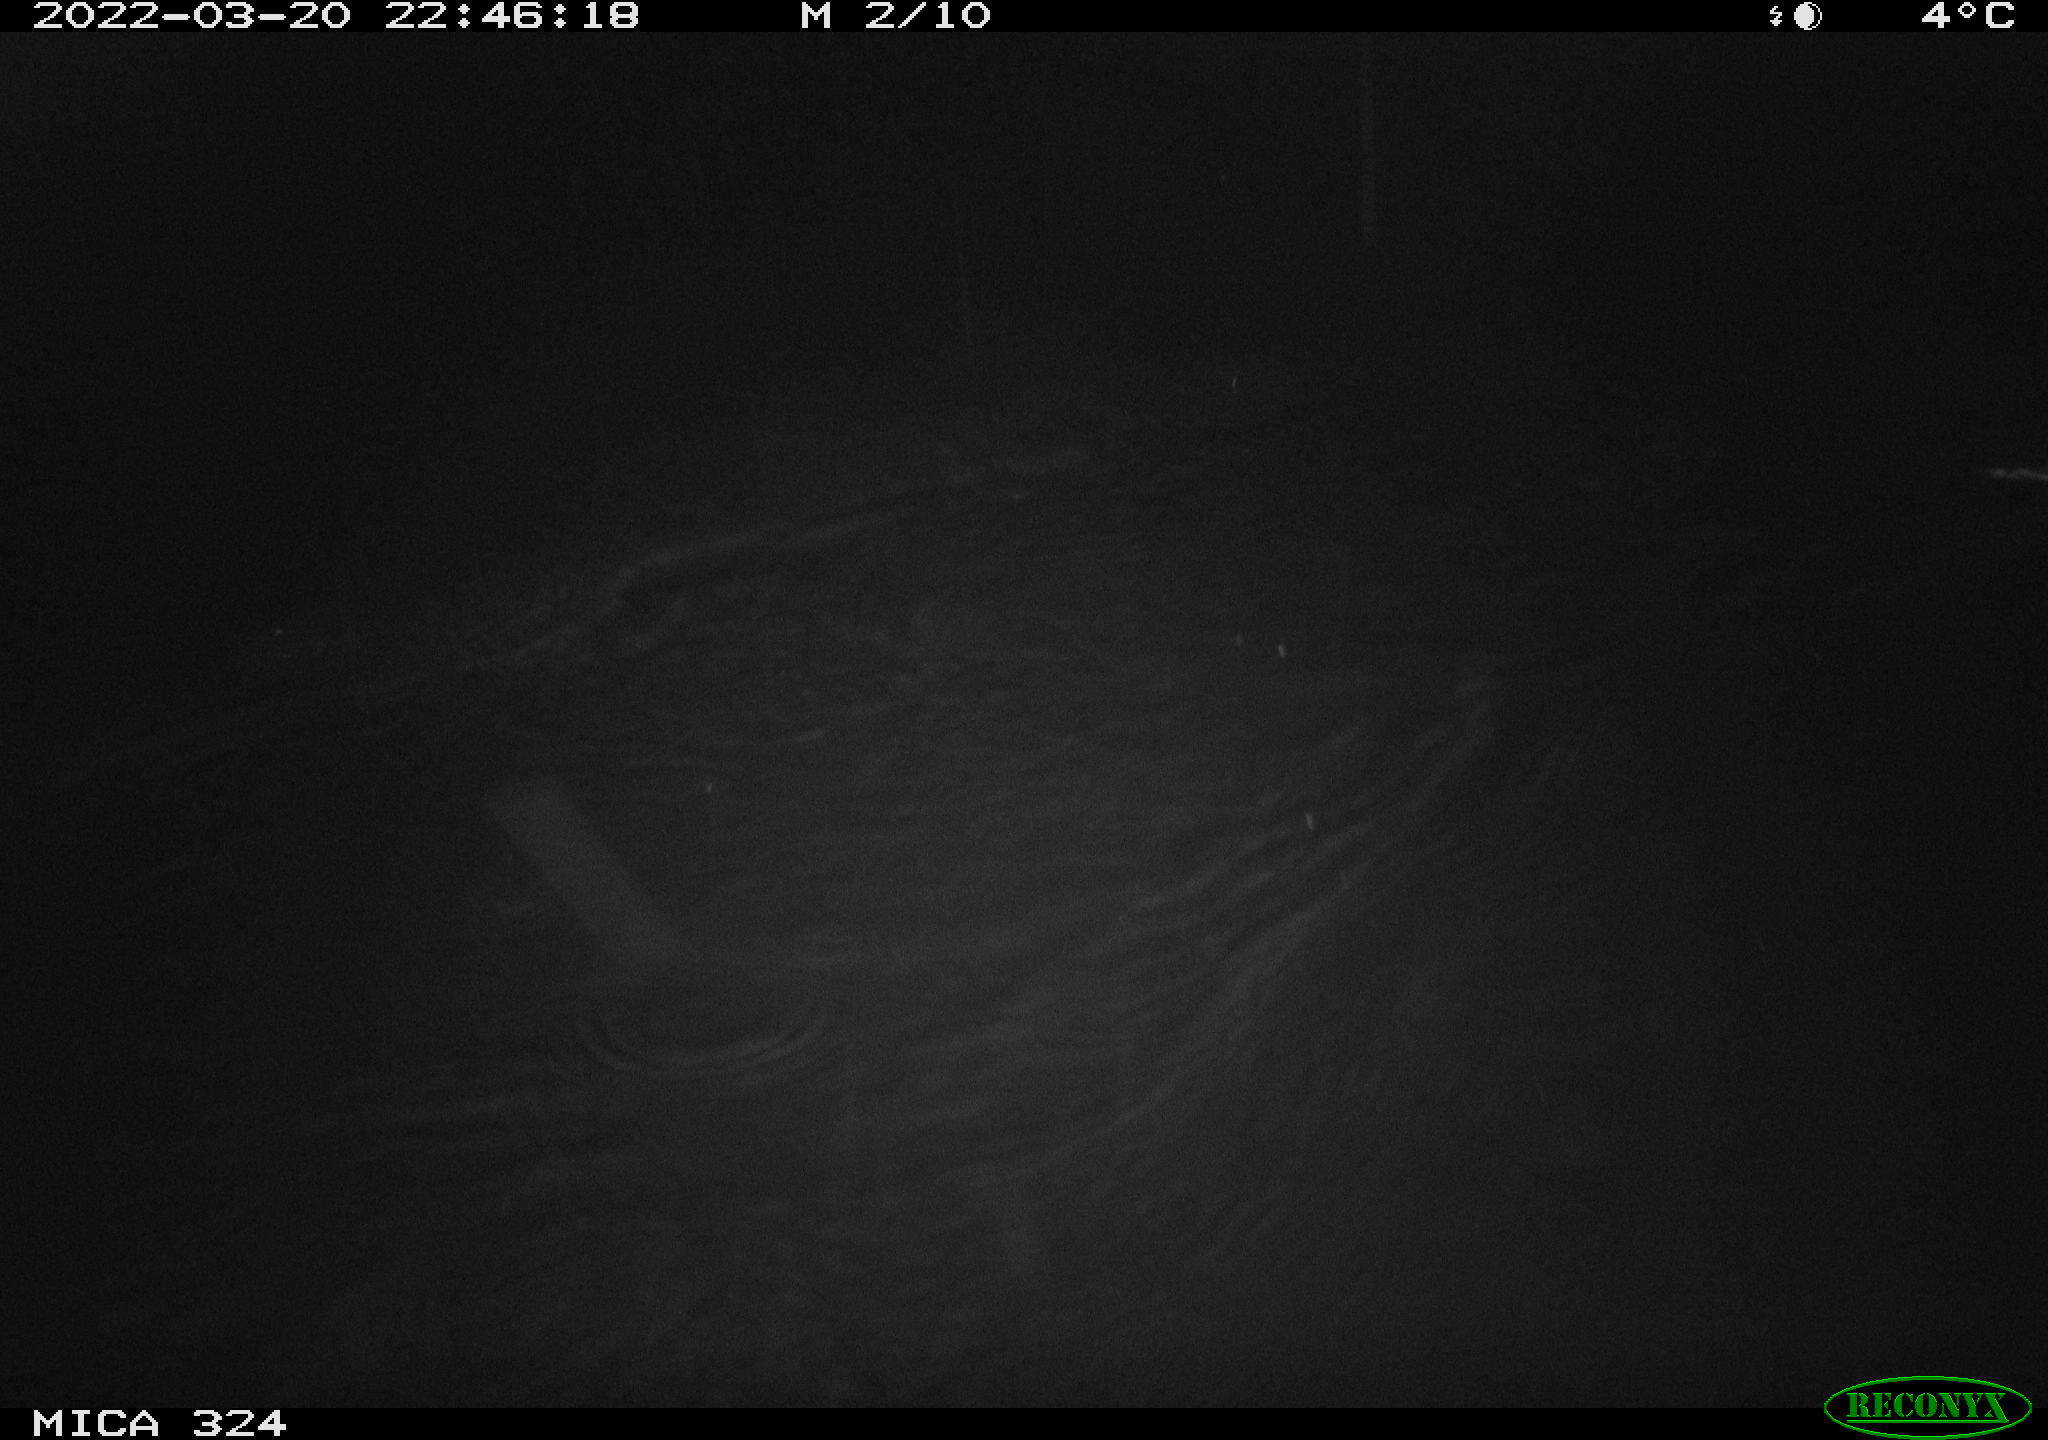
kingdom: Animalia
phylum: Chordata
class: Mammalia
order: Rodentia
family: Cricetidae
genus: Ondatra
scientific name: Ondatra zibethicus
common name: Muskrat
